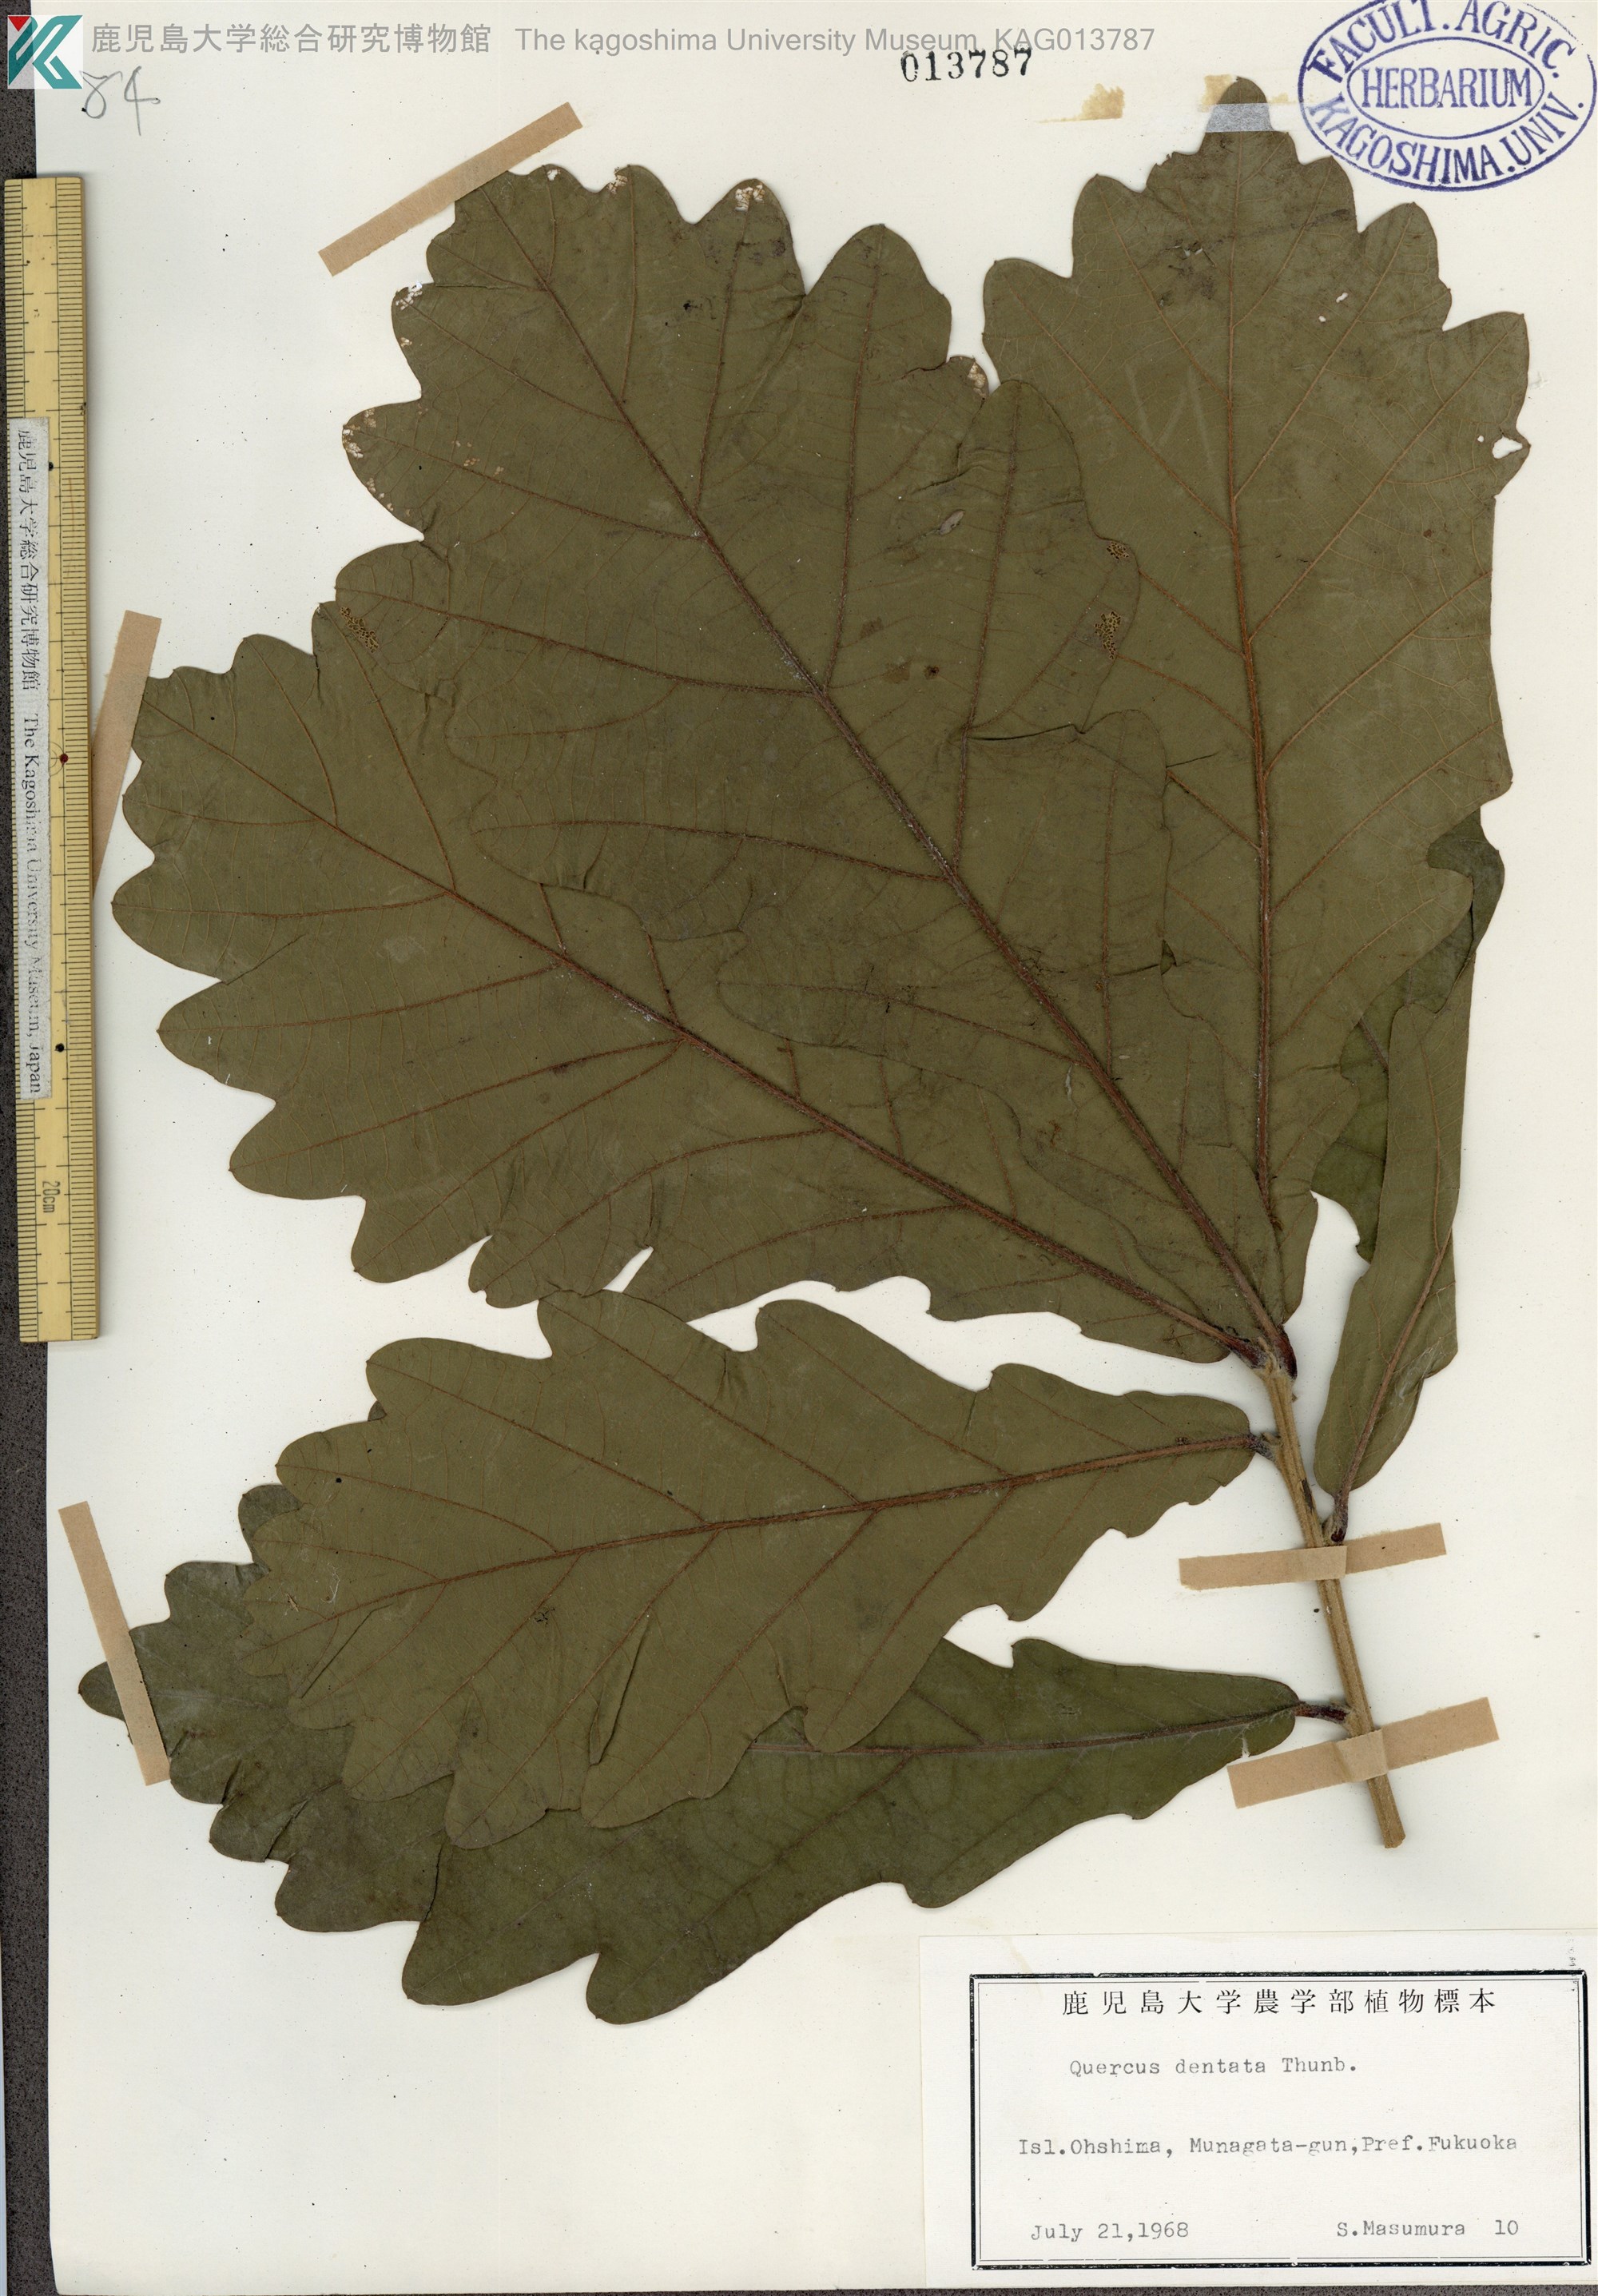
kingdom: Plantae
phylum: Tracheophyta
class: Magnoliopsida
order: Fagales
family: Fagaceae
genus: Quercus
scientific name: Quercus dentata
